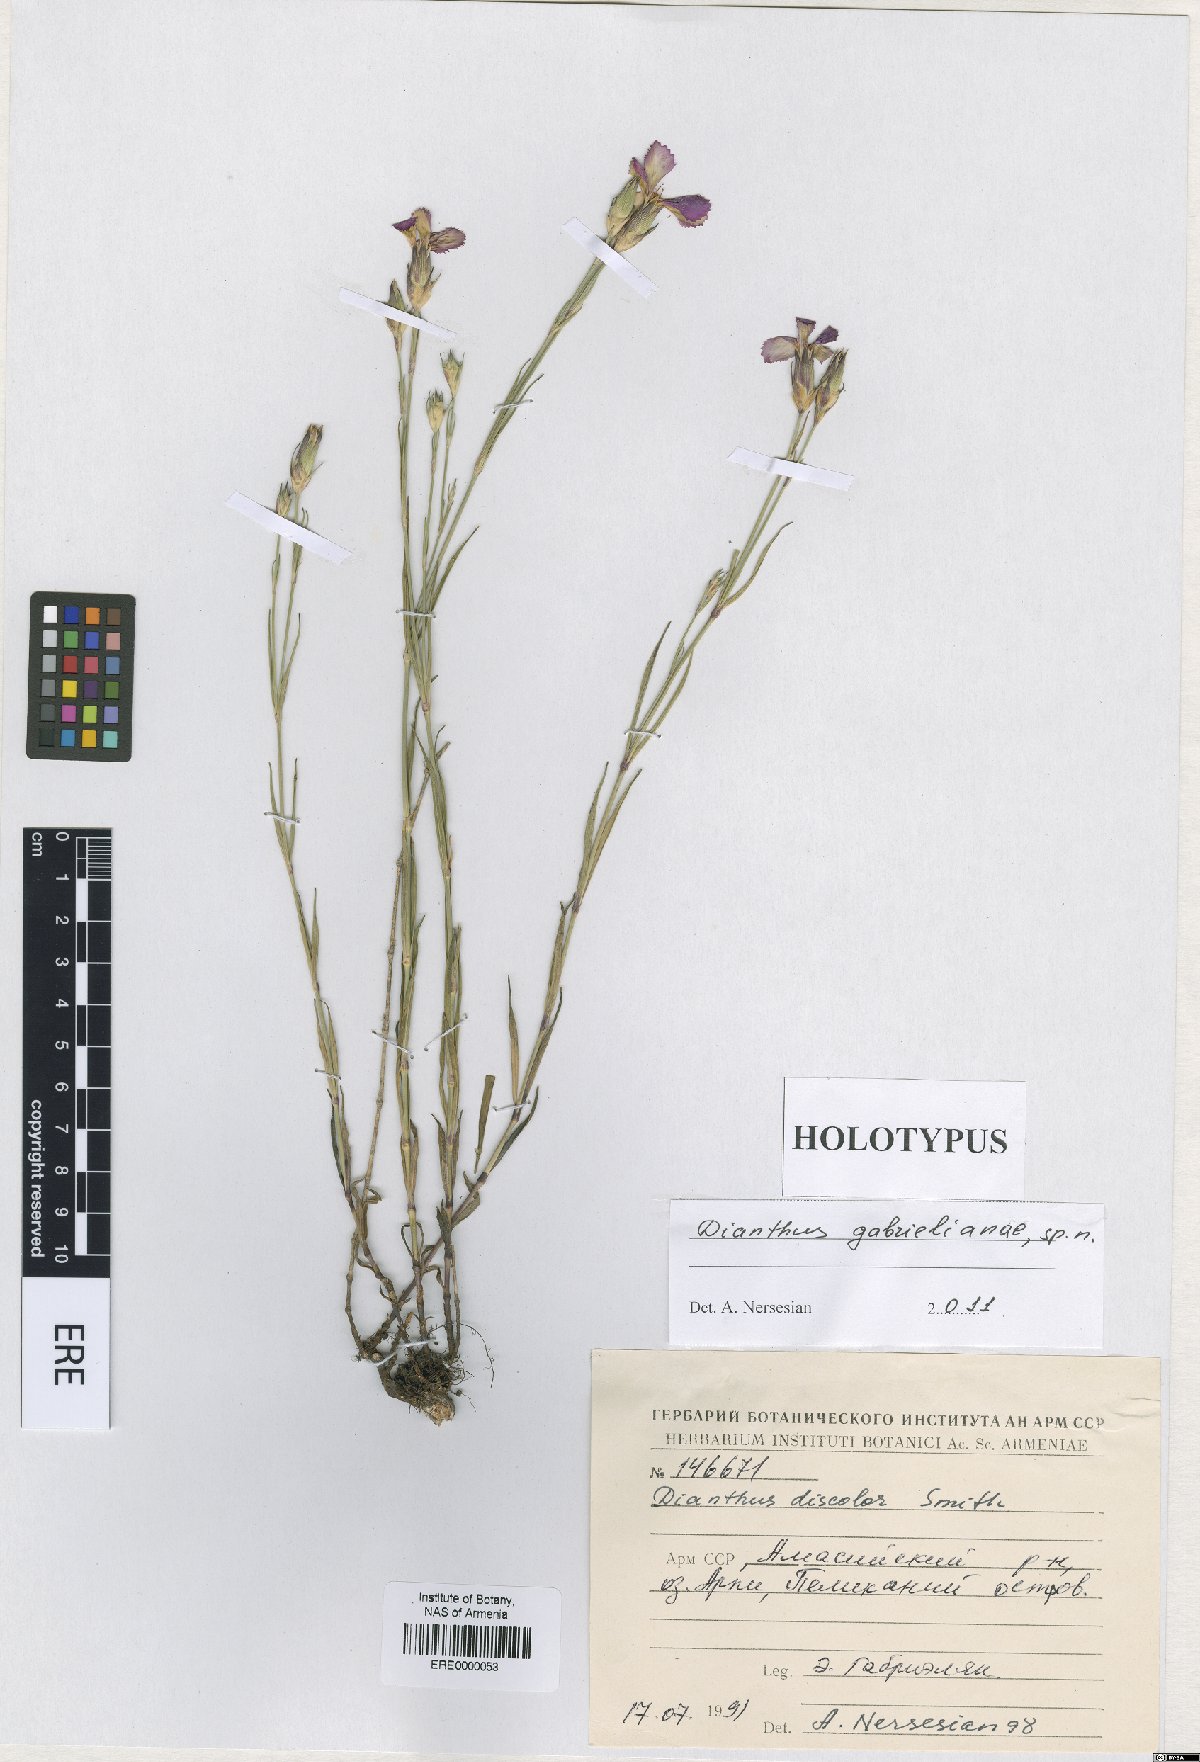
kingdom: Plantae
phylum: Tracheophyta
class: Magnoliopsida
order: Caryophyllales
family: Caryophyllaceae
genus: Dianthus
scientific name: Dianthus gabrielianae
